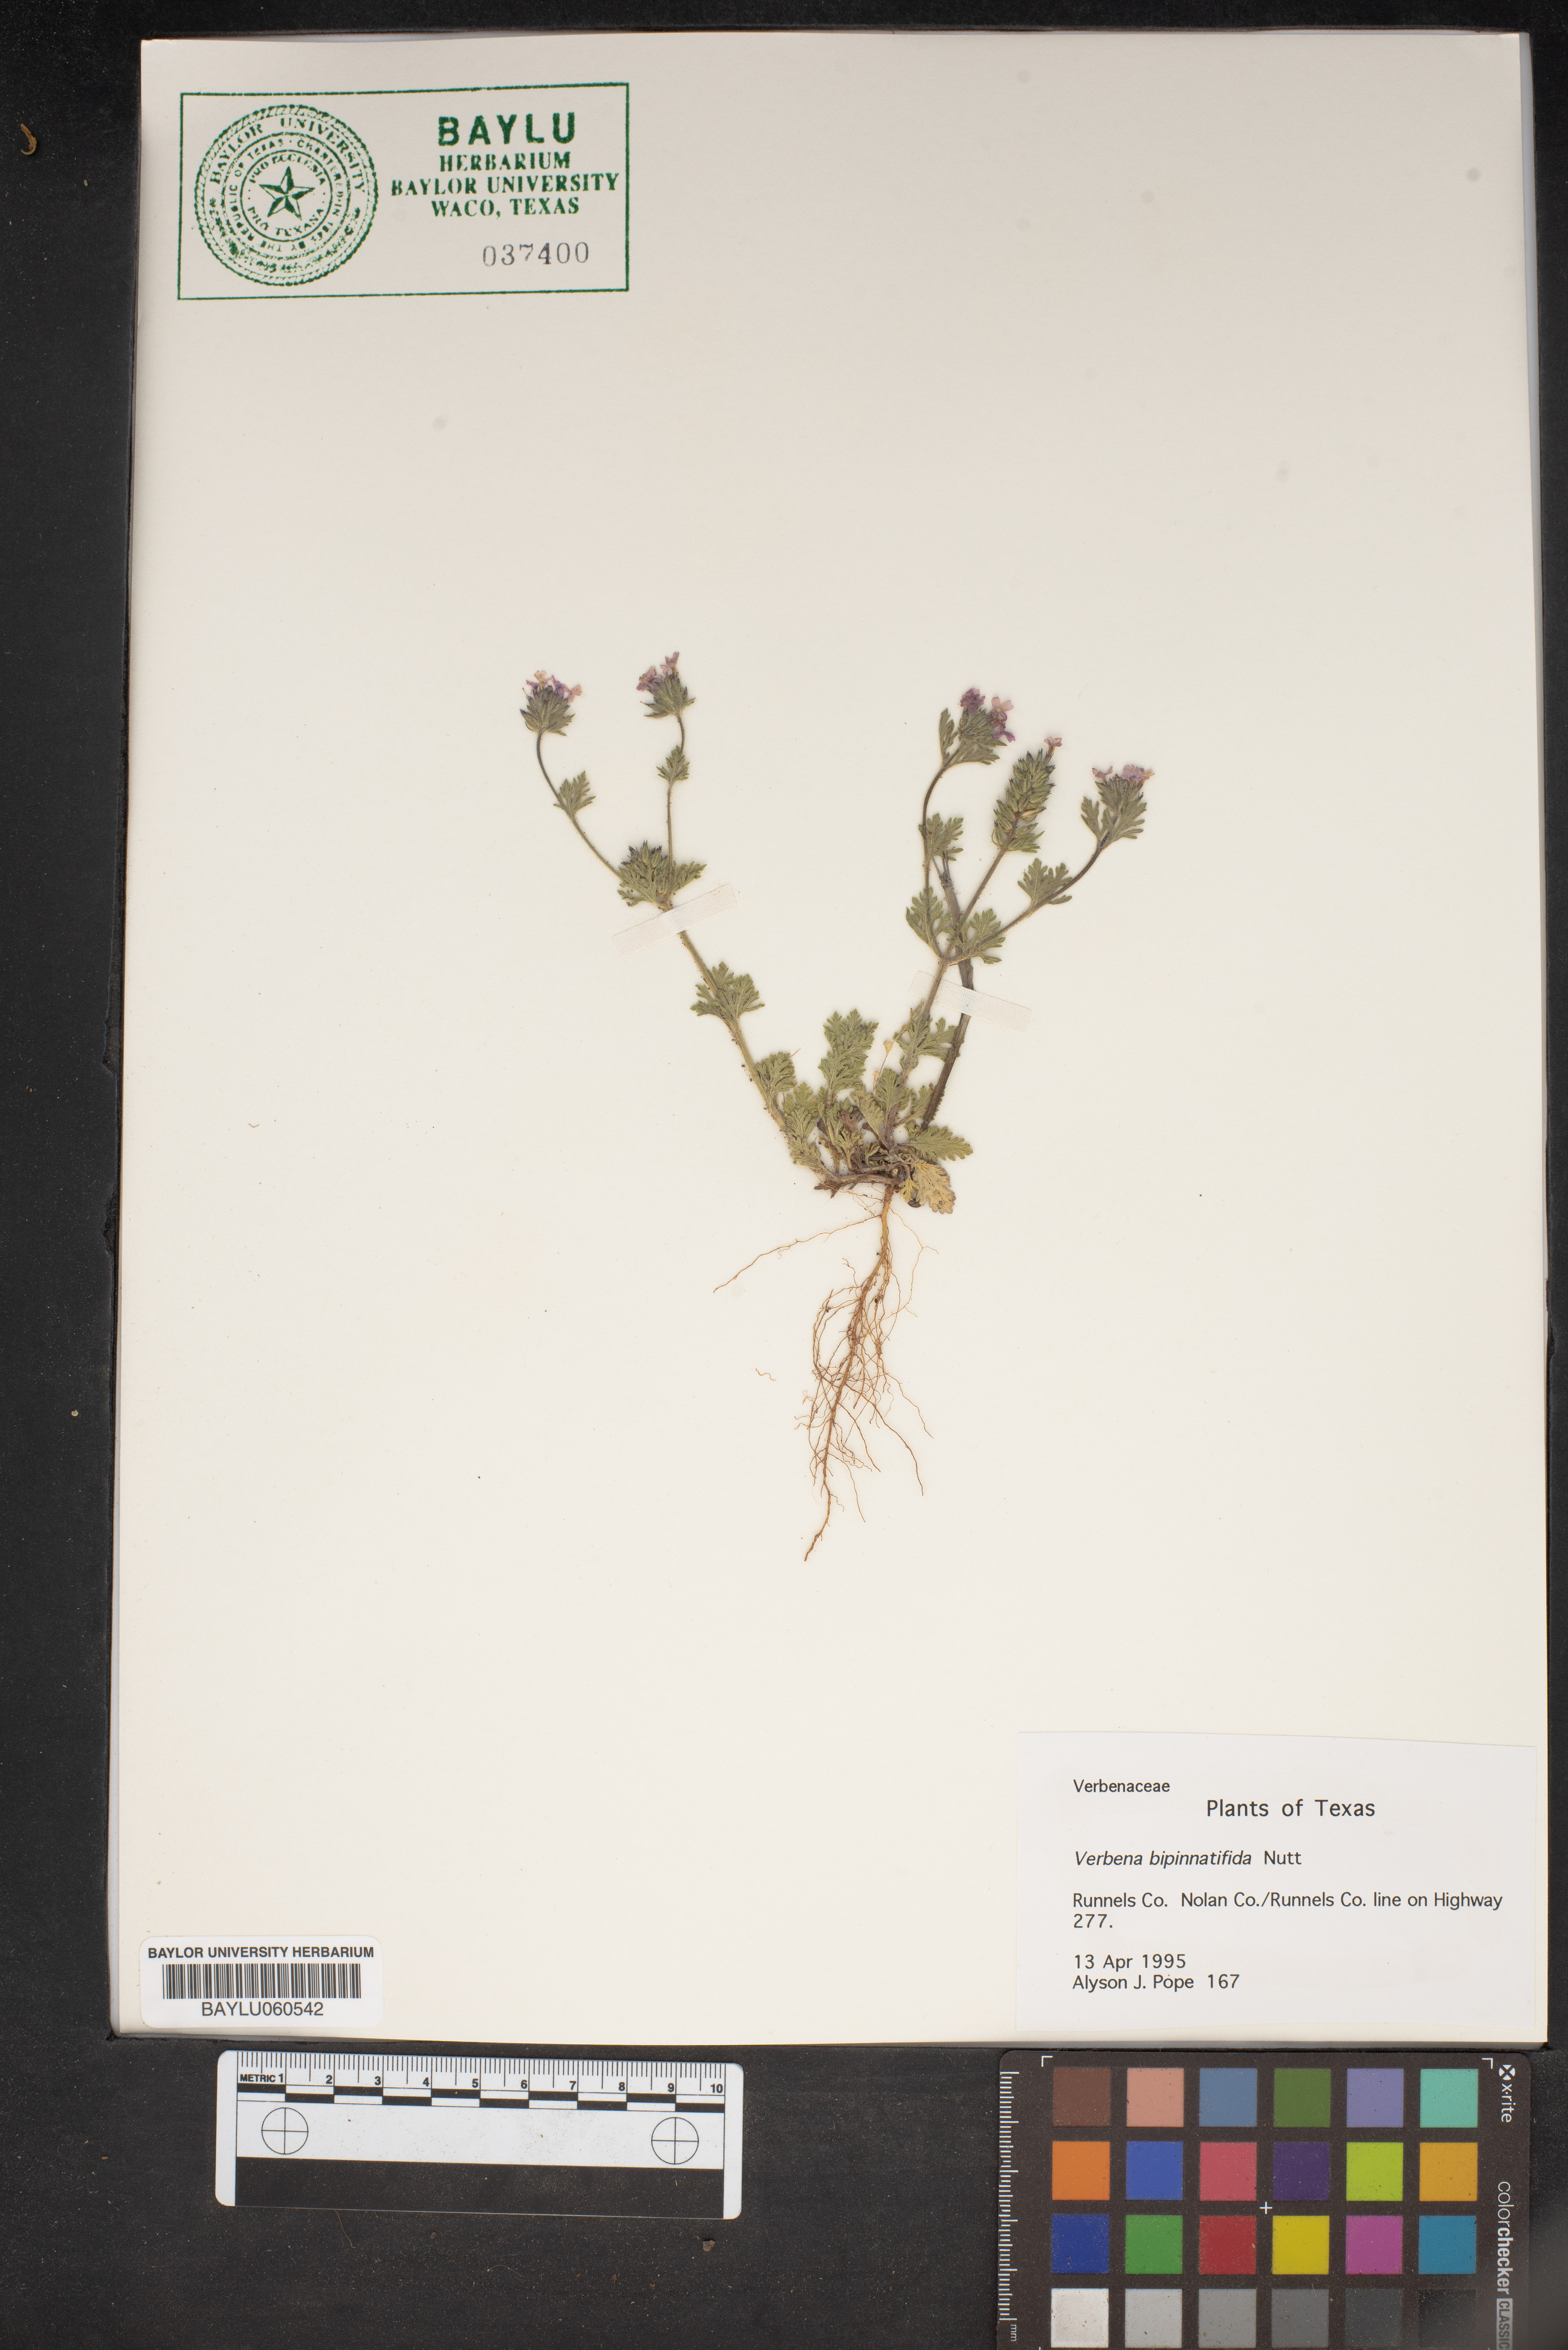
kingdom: Plantae
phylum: Tracheophyta
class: Magnoliopsida
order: Lamiales
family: Verbenaceae
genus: Verbena
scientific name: Verbena bipinnatifida
